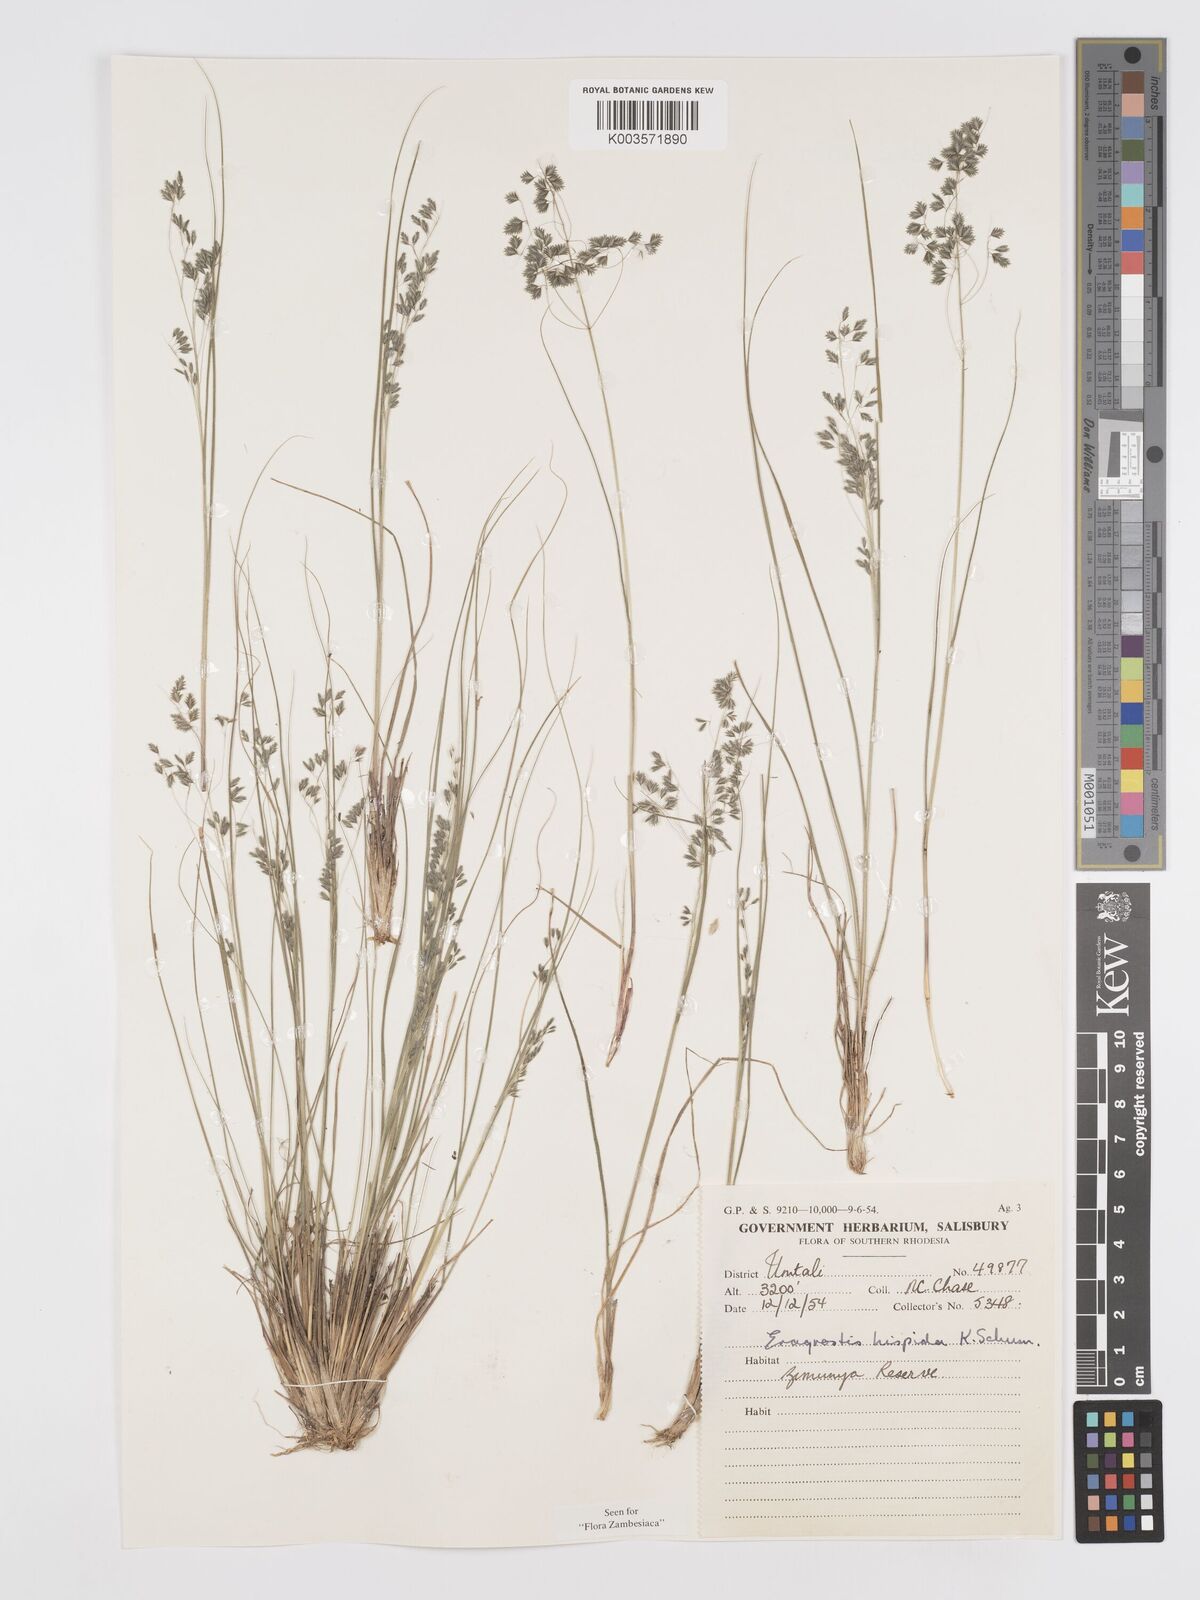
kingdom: Plantae
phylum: Tracheophyta
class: Liliopsida
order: Poales
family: Poaceae
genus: Eragrostis
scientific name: Eragrostis hispida
